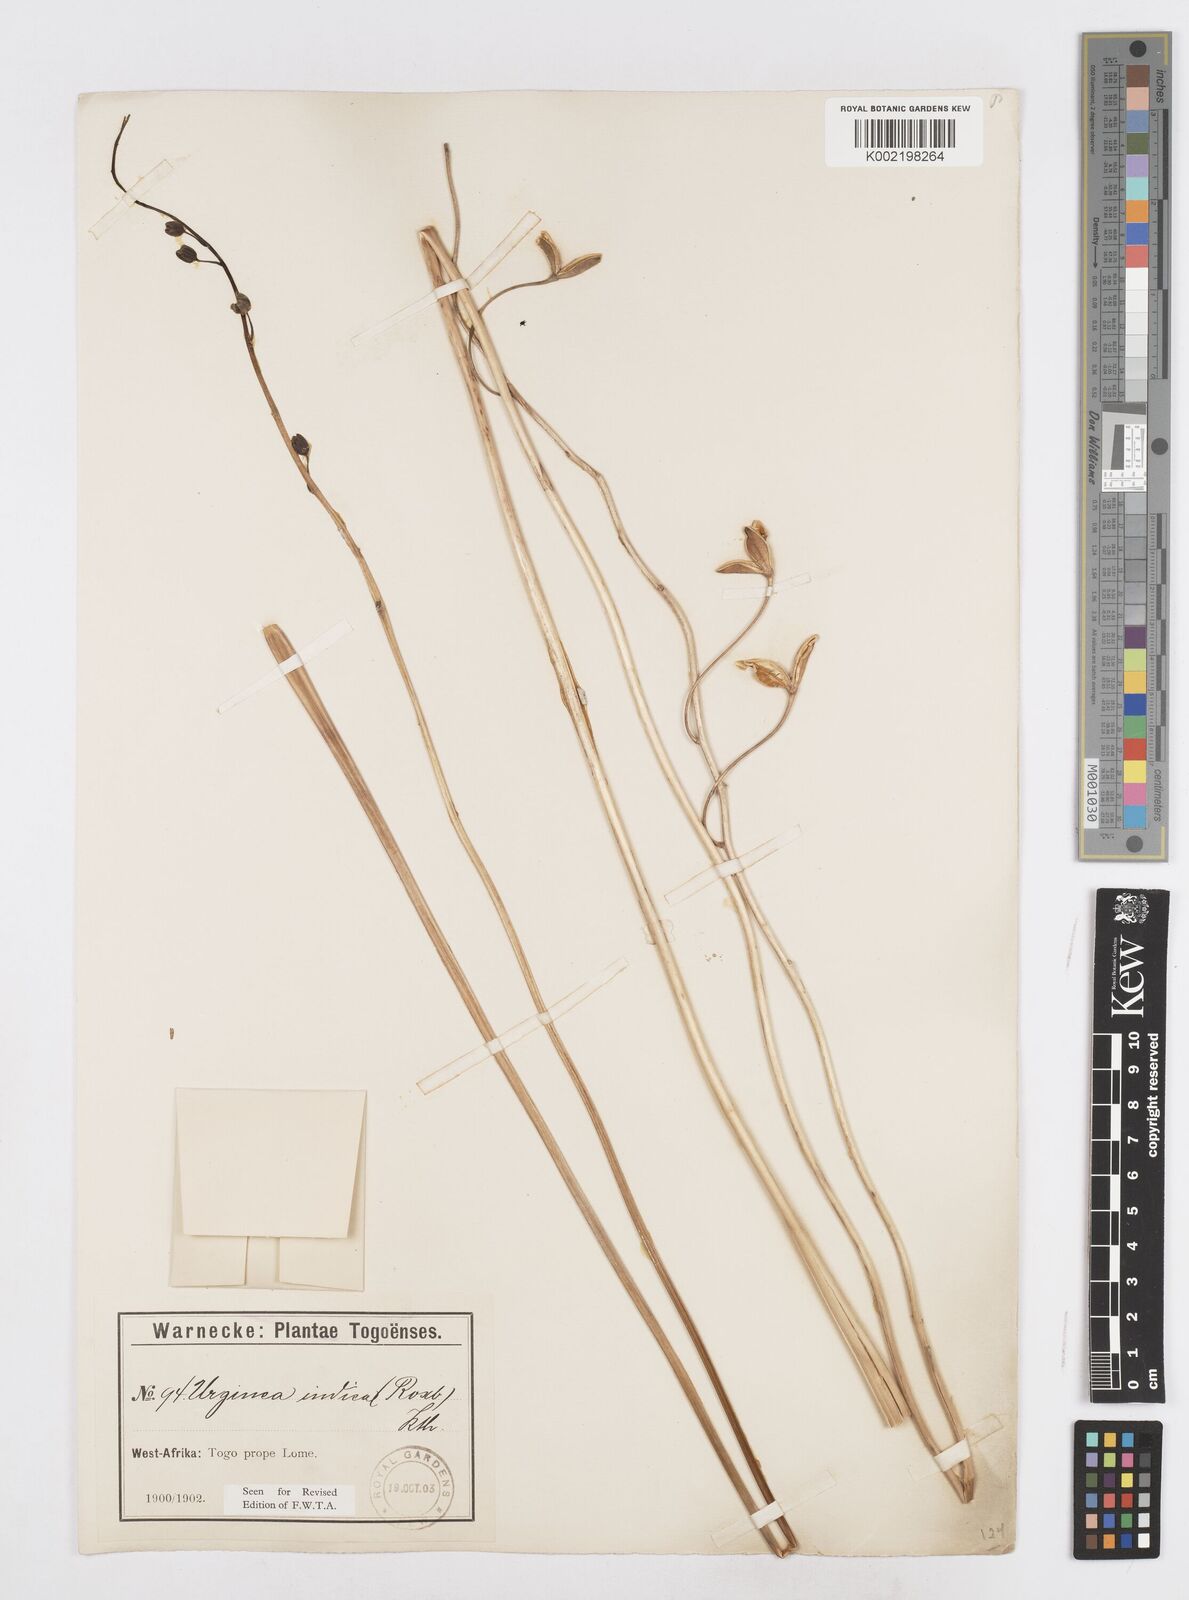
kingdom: Plantae
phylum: Tracheophyta
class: Liliopsida
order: Asparagales
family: Asparagaceae
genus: Drimia
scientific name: Drimia indica
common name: Indian-squill
